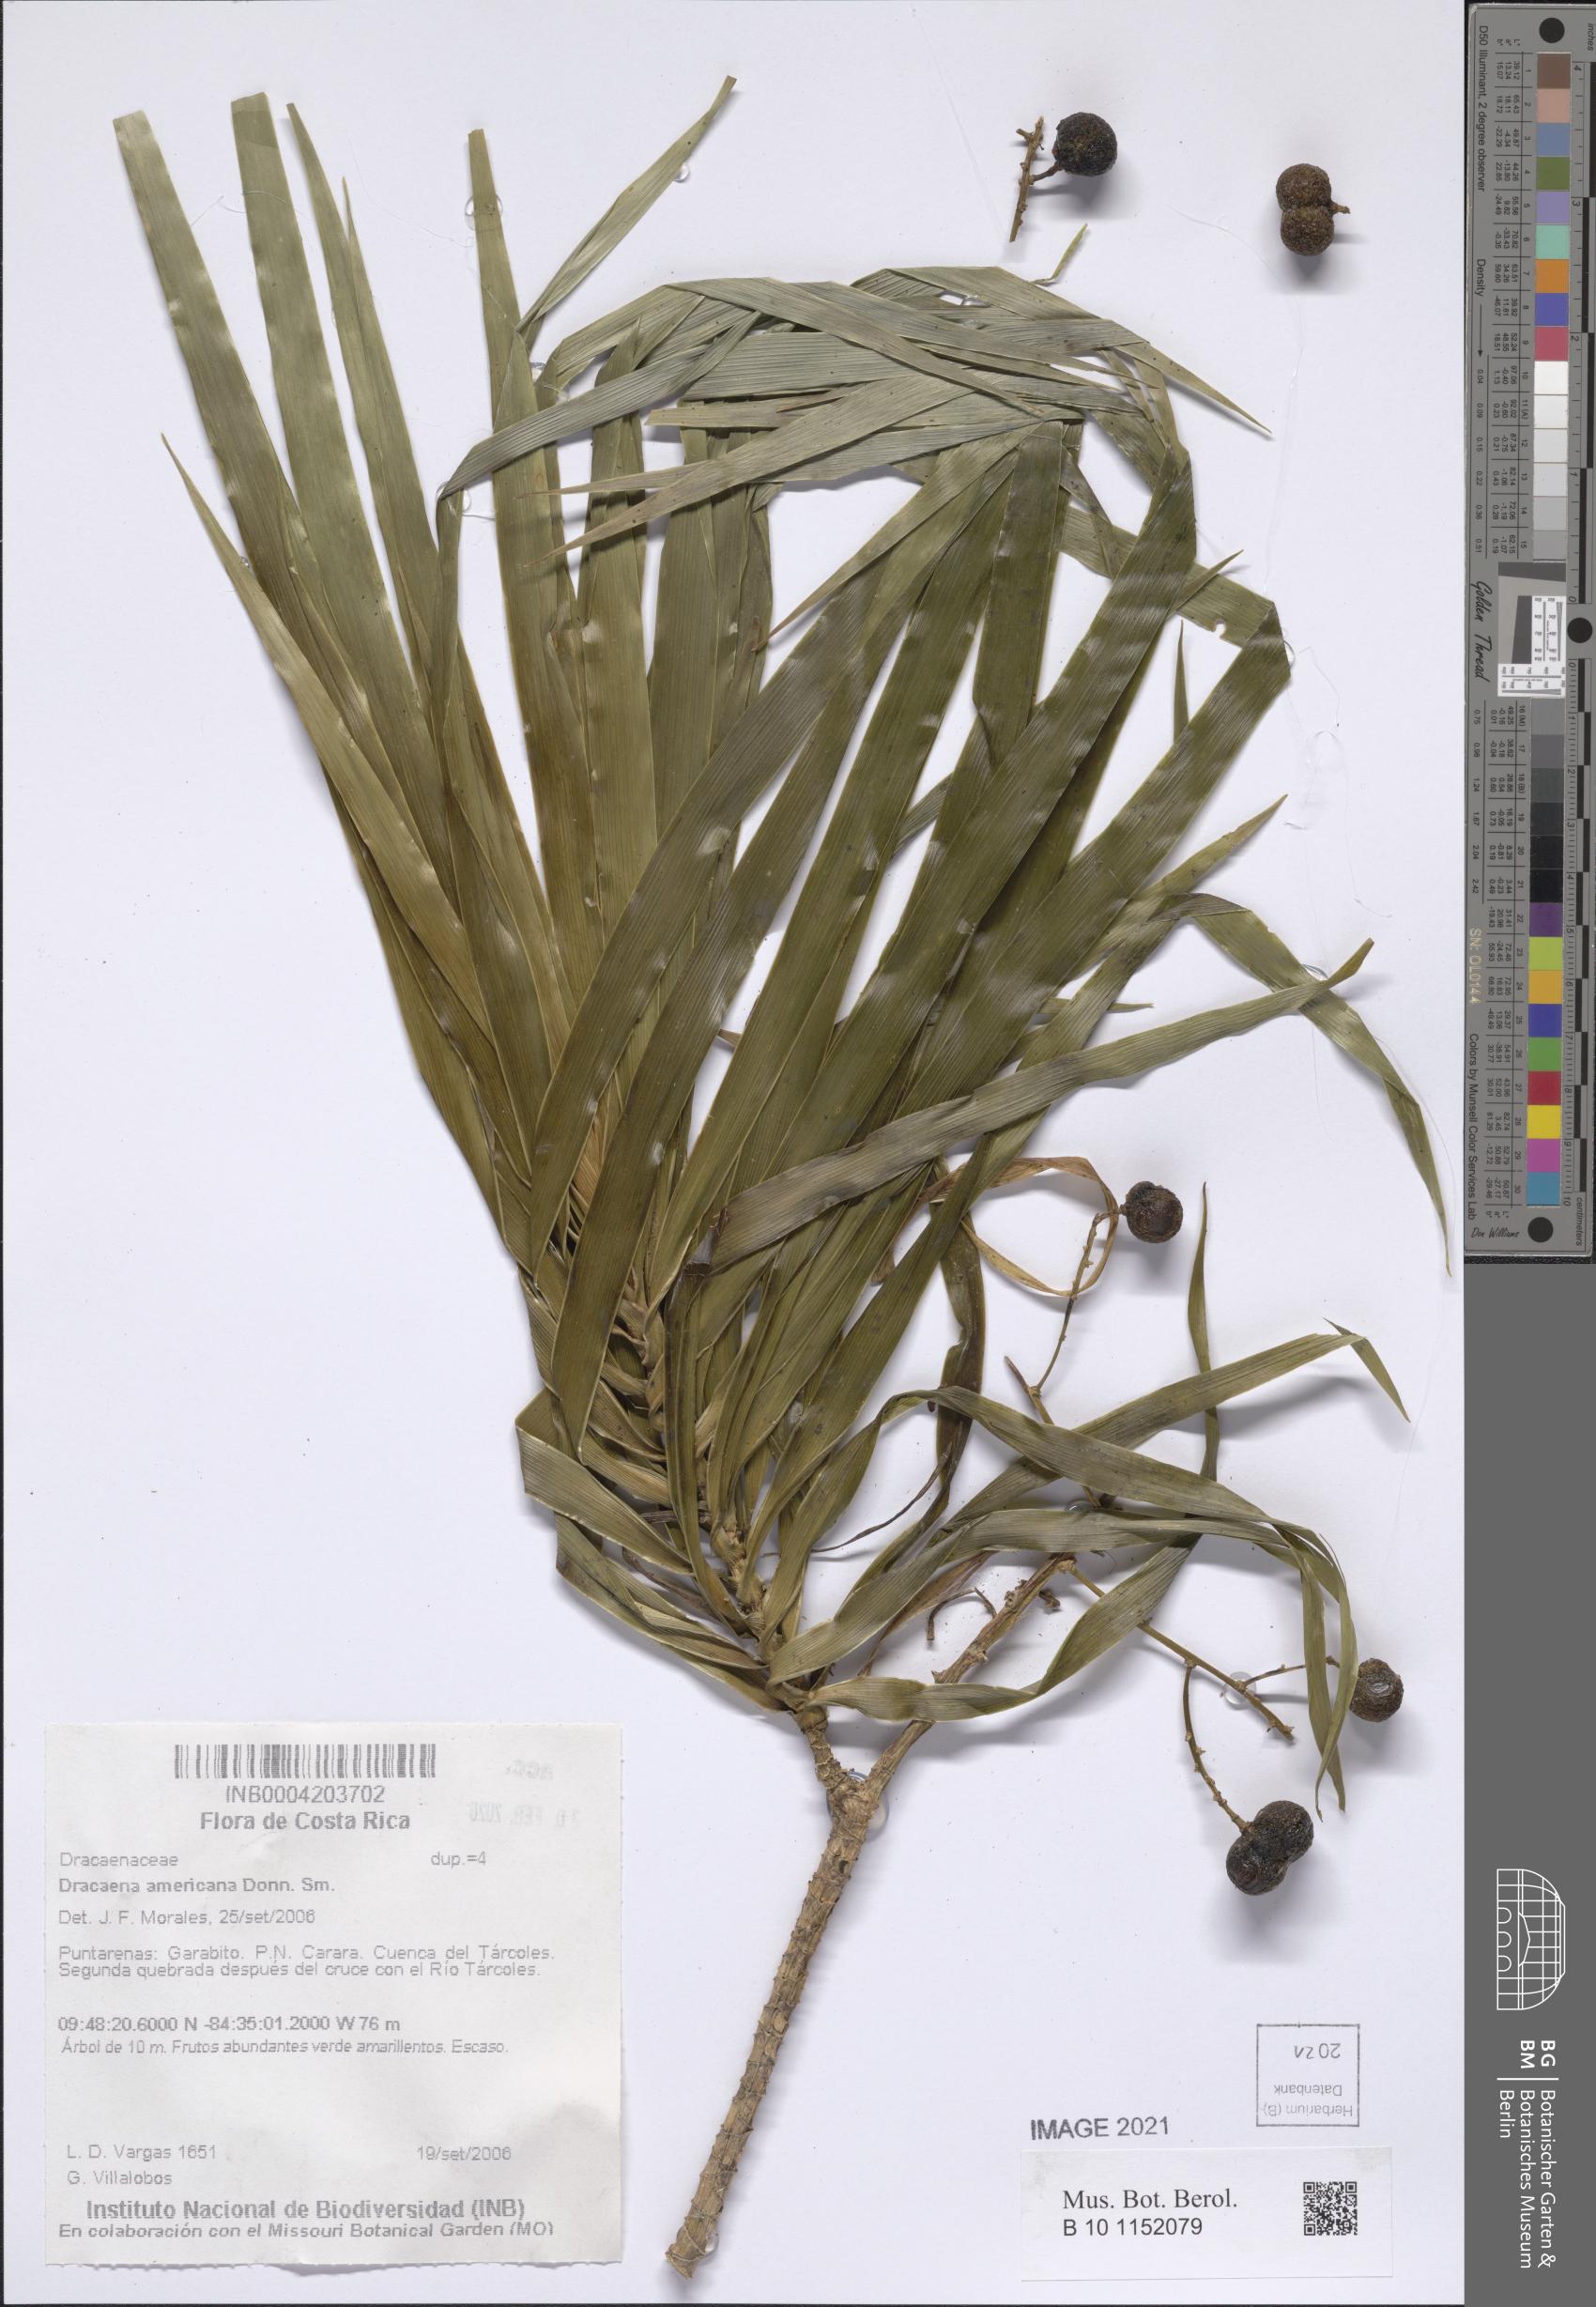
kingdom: Plantae
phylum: Tracheophyta
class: Liliopsida
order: Asparagales
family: Asparagaceae
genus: Dracaena
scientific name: Dracaena ghiesbreghtii
